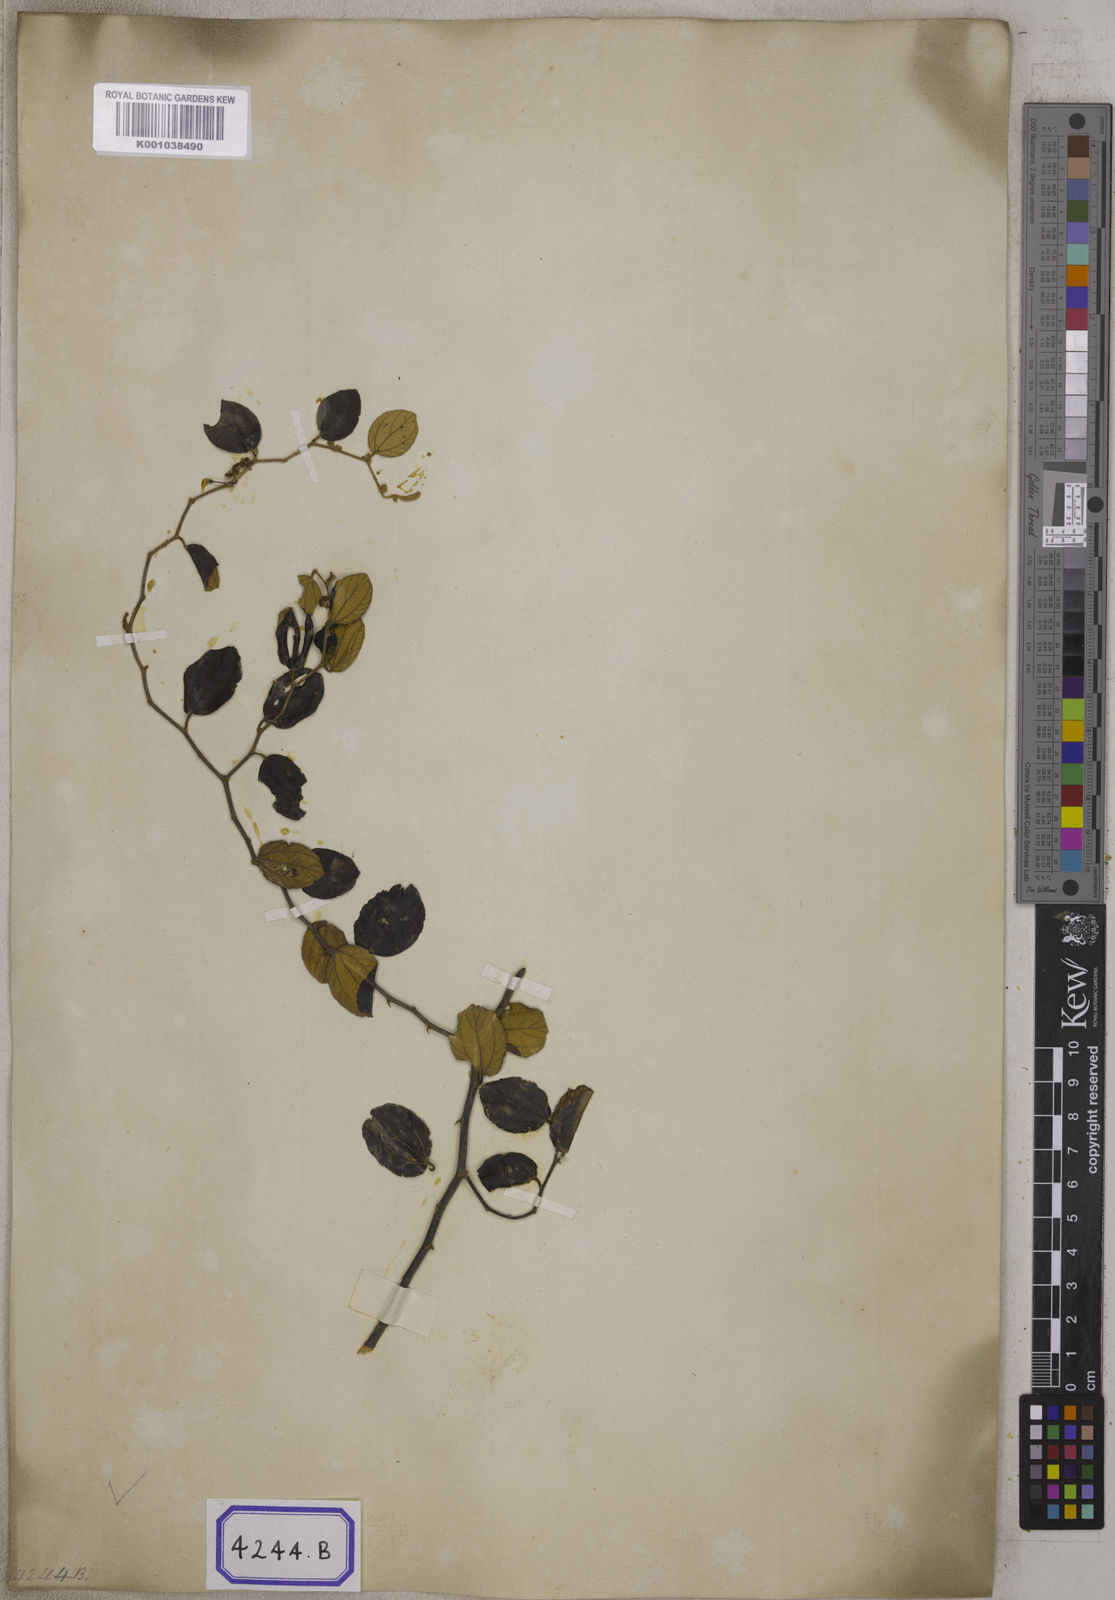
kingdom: Plantae
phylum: Tracheophyta
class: Magnoliopsida
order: Rosales
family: Rhamnaceae
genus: Ziziphus
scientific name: Ziziphus
